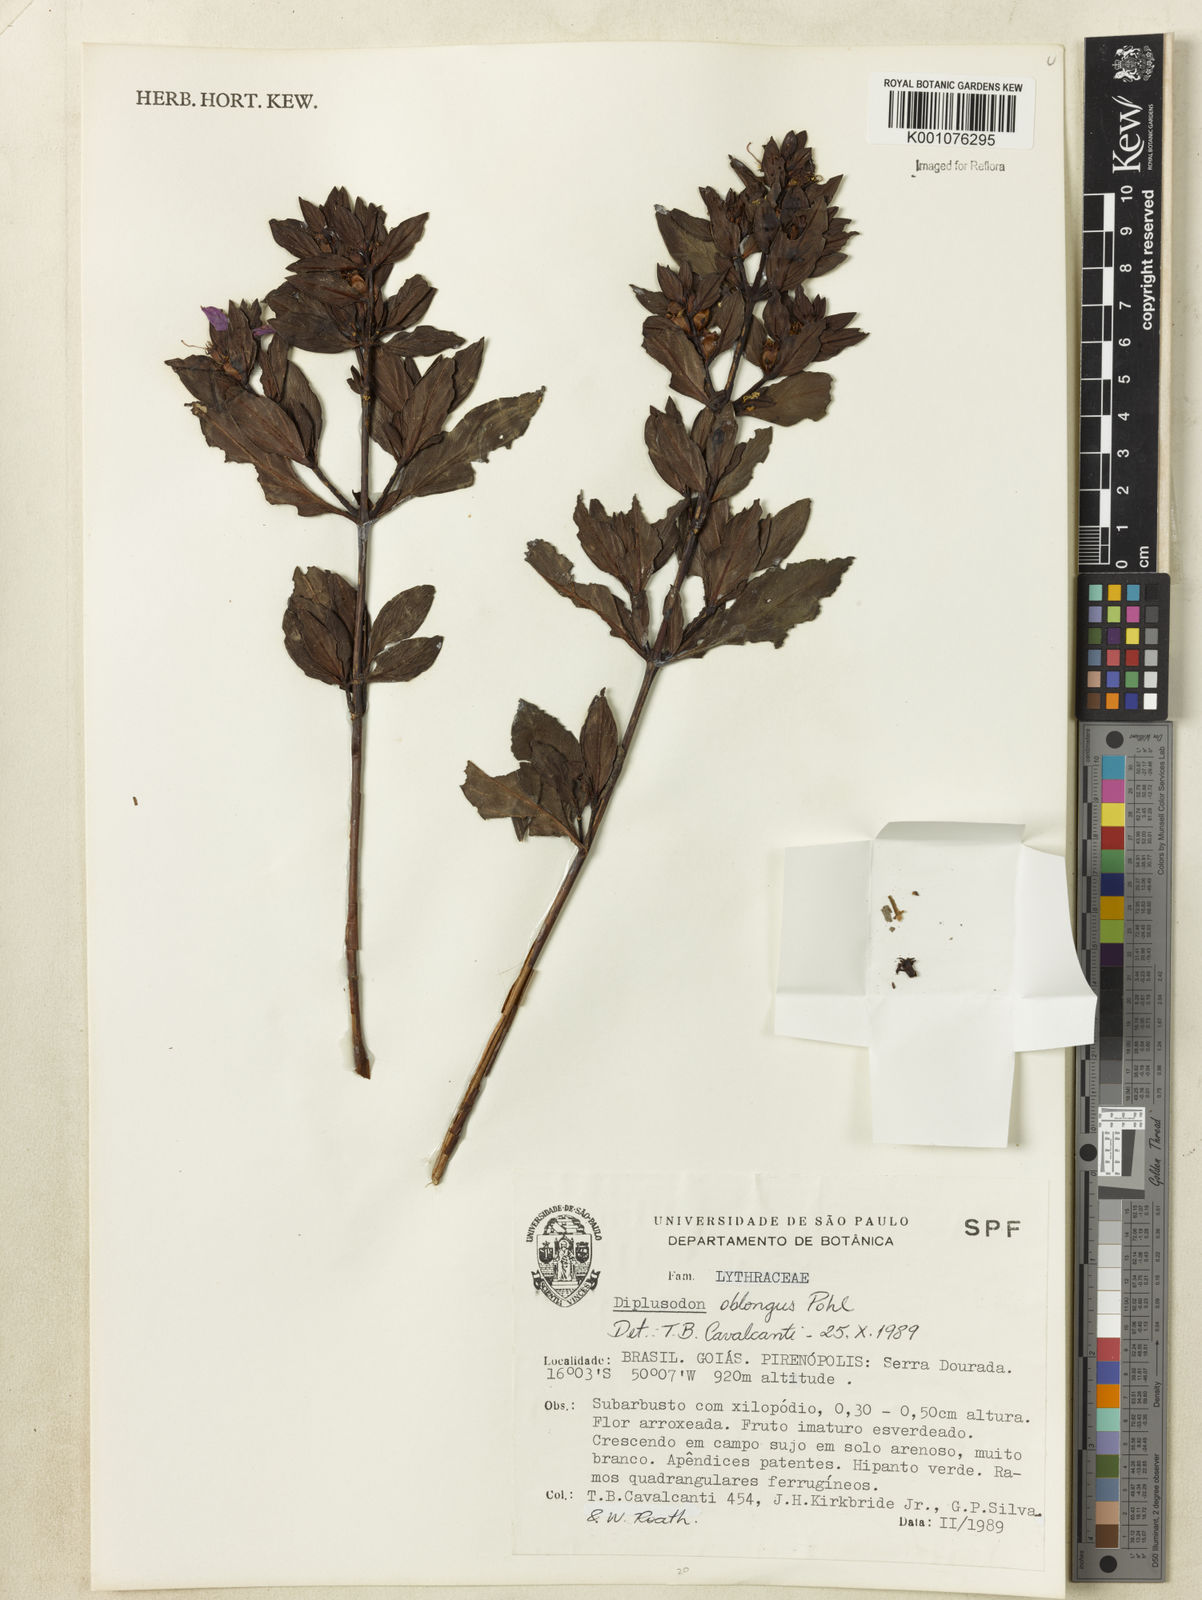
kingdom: Plantae
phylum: Tracheophyta
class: Magnoliopsida
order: Myrtales
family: Lythraceae
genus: Diplusodon
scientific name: Diplusodon oblongus
